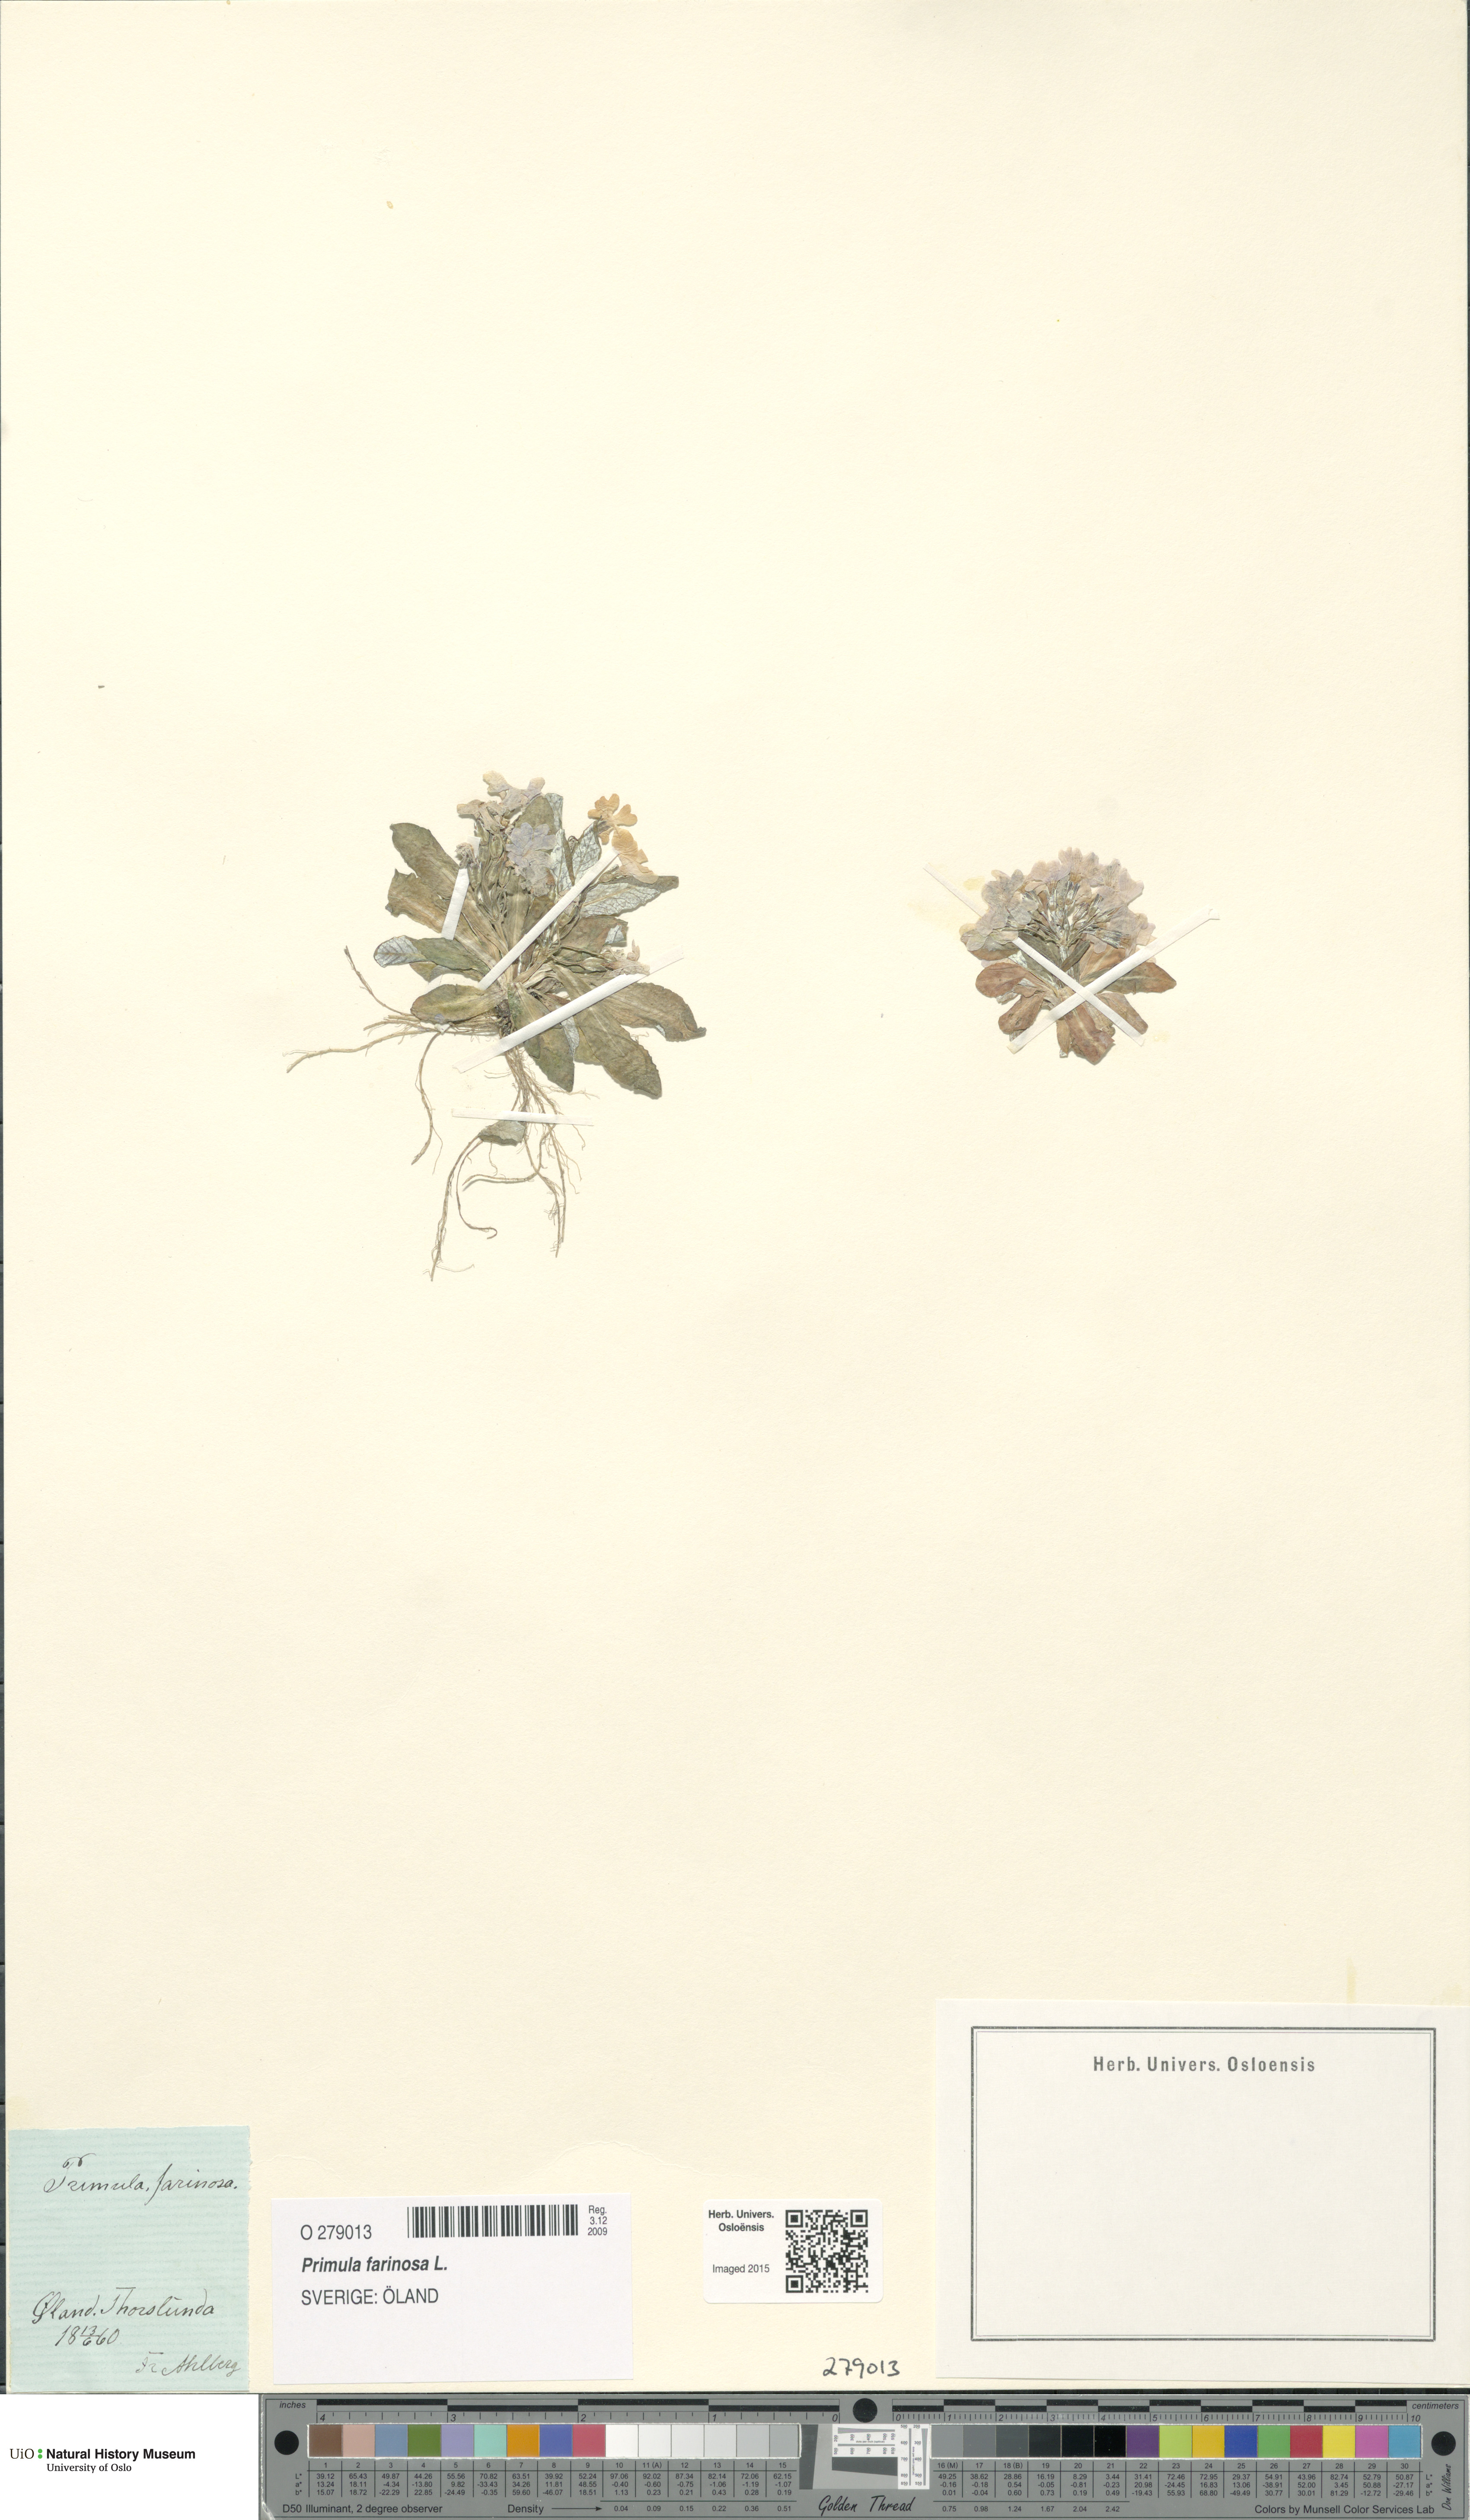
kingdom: Plantae
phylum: Tracheophyta
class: Magnoliopsida
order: Ericales
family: Primulaceae
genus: Primula
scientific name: Primula farinosa
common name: Bird's-eye primrose
